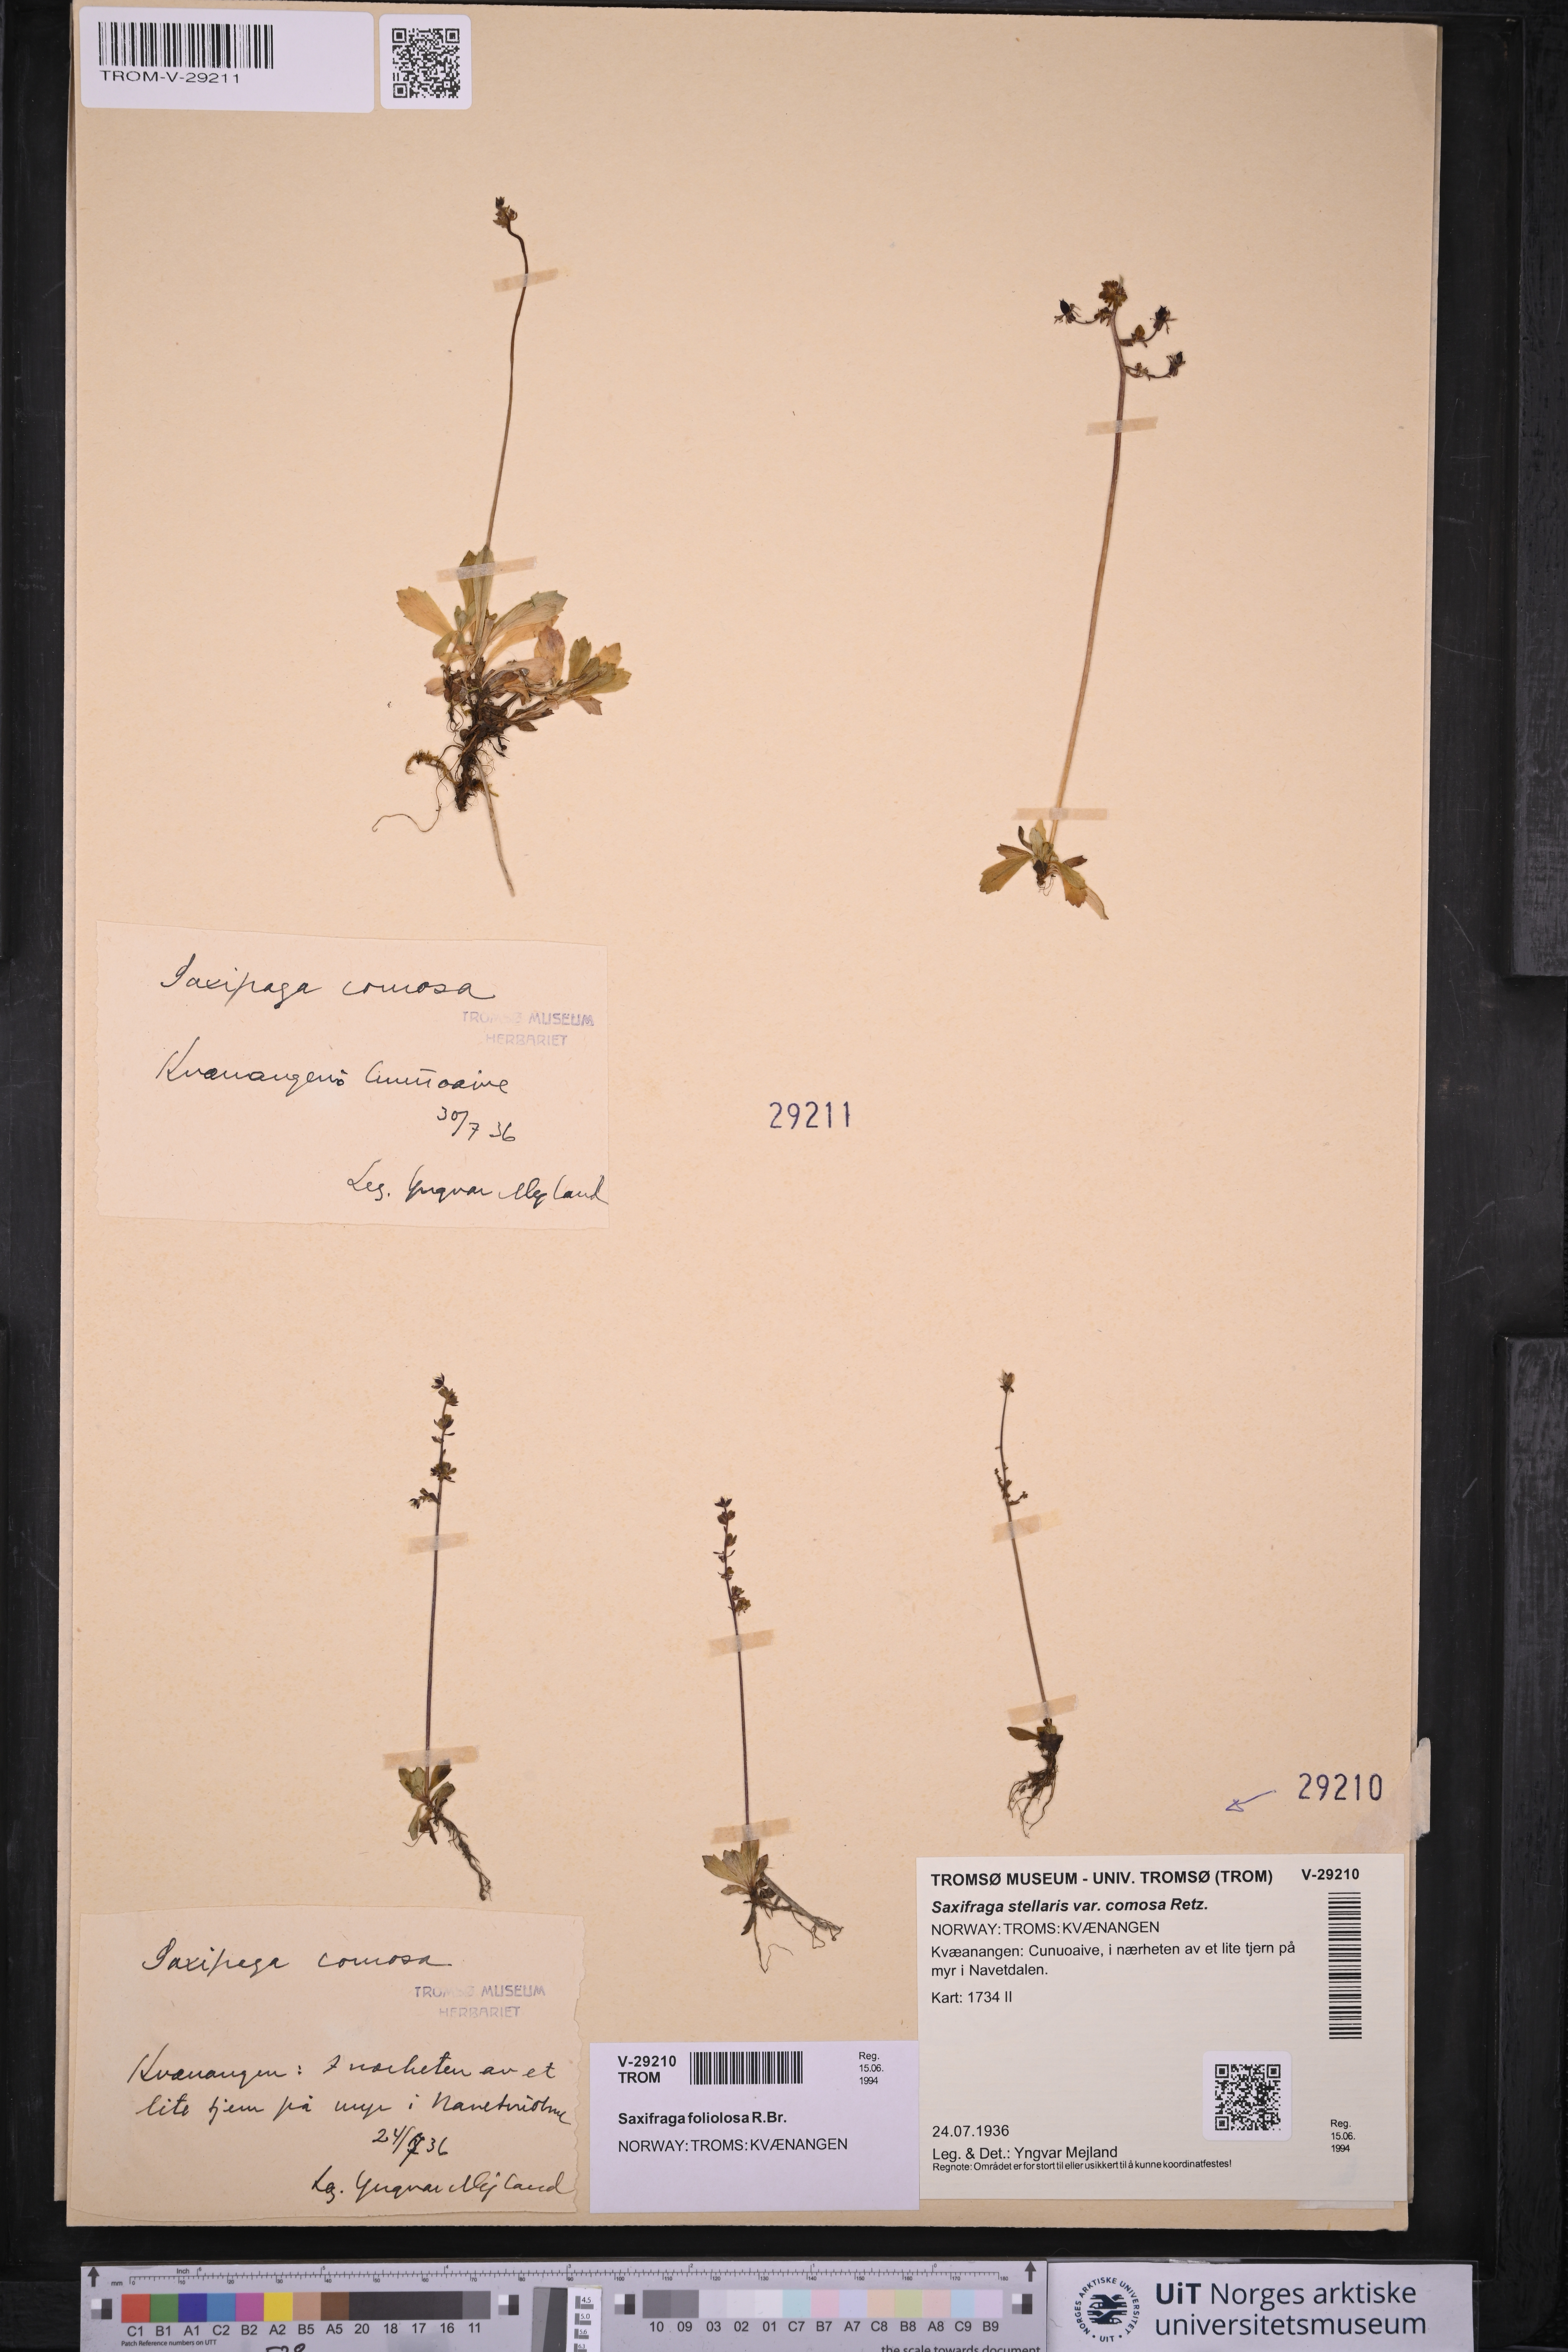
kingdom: Plantae
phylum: Tracheophyta
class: Magnoliopsida
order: Saxifragales
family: Saxifragaceae
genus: Micranthes
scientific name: Micranthes foliolosa
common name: Leafystem saxifrage
